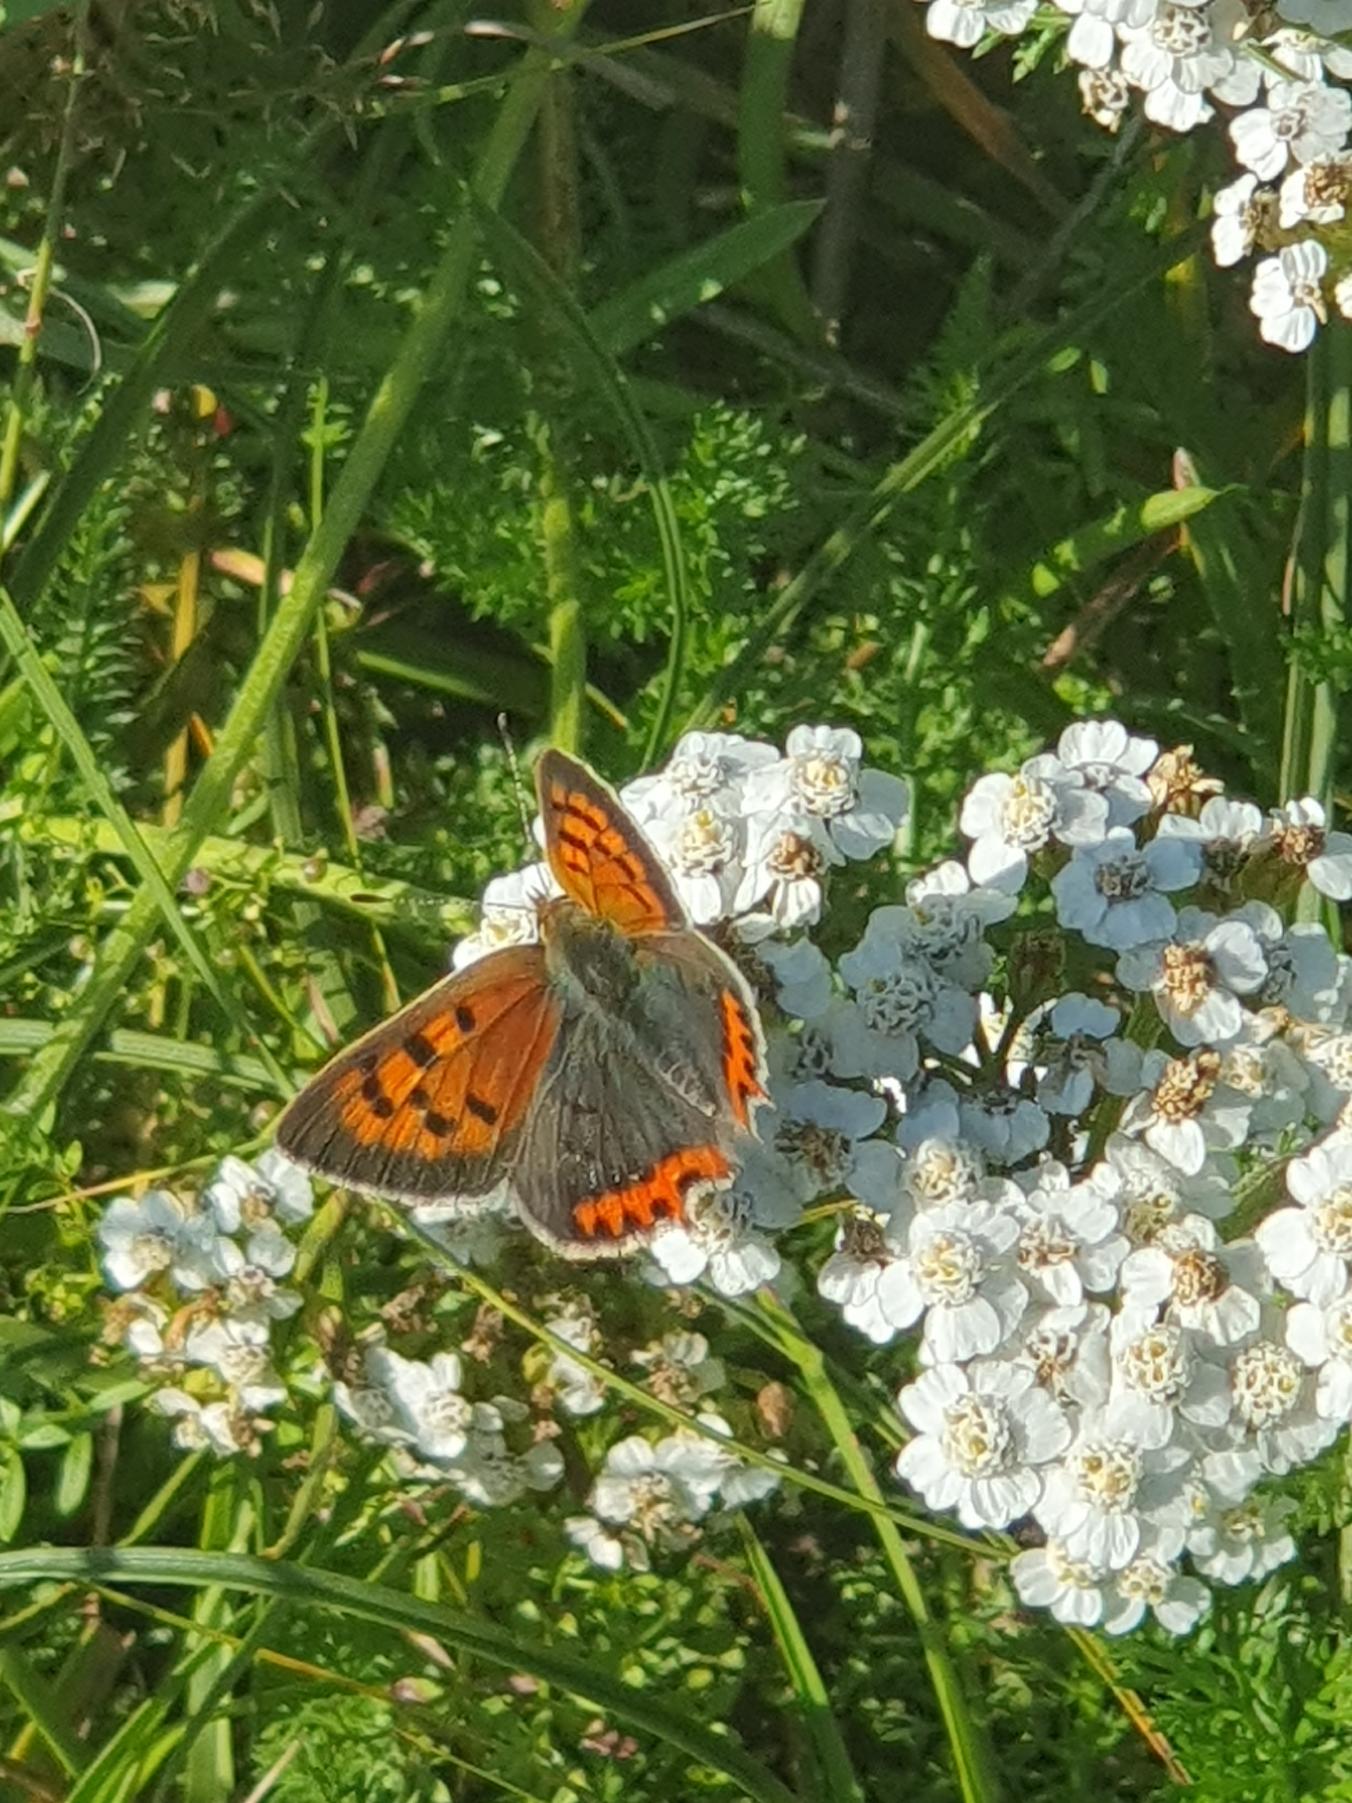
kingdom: Animalia
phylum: Arthropoda
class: Insecta
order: Lepidoptera
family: Lycaenidae
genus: Lycaena
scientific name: Lycaena phlaeas
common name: Lille ildfugl
